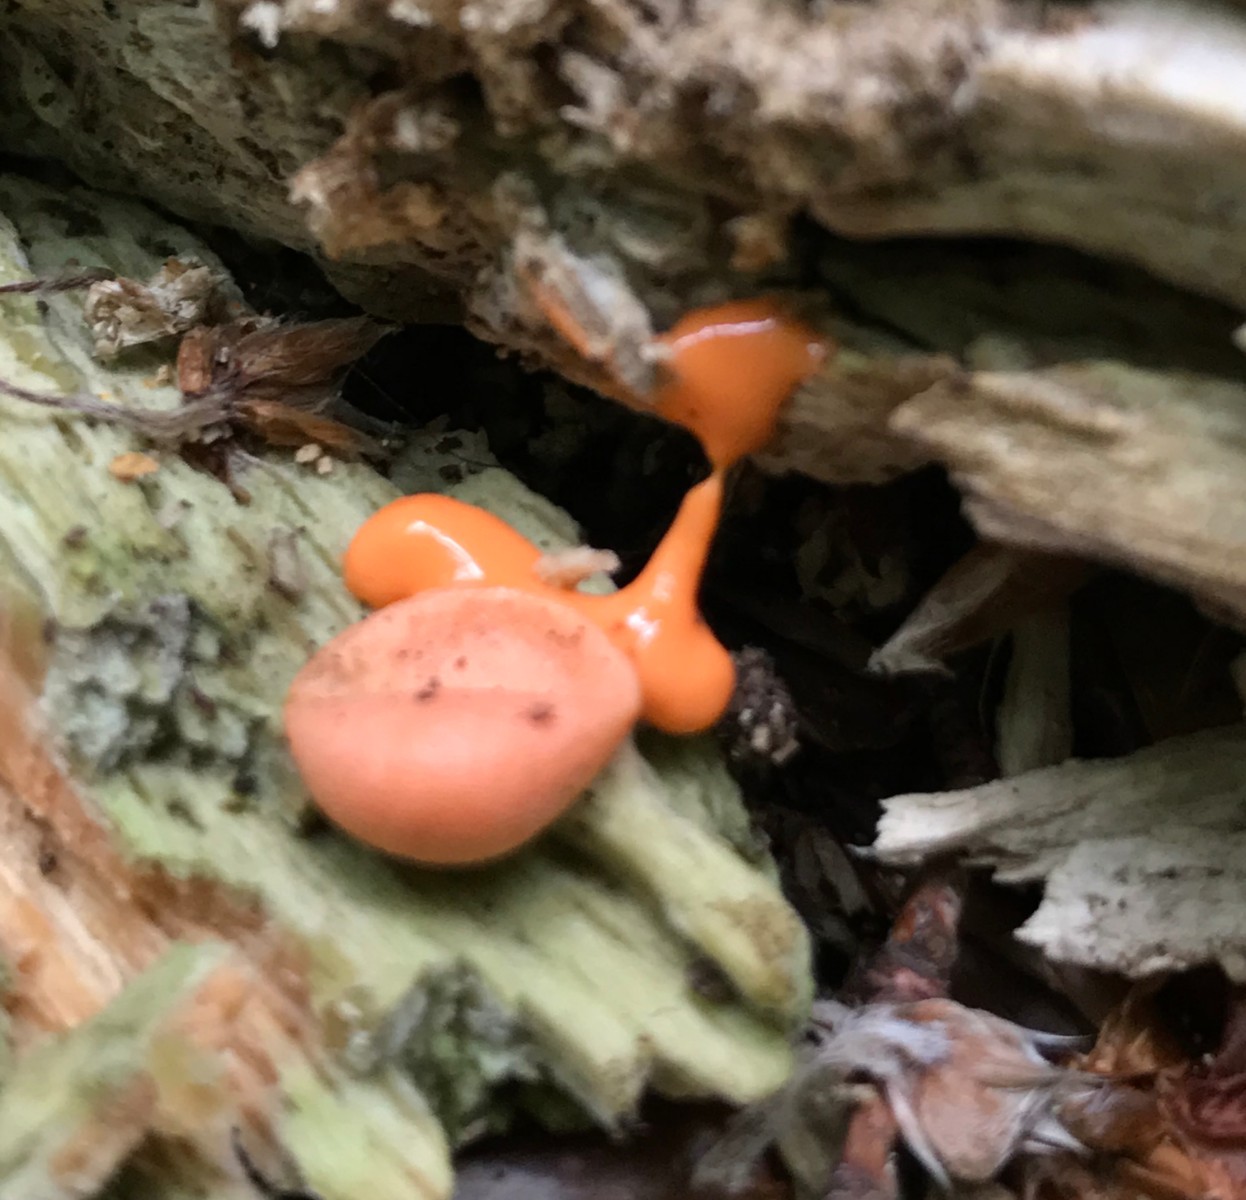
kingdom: Protozoa
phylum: Mycetozoa
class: Myxomycetes
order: Cribrariales
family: Tubiferaceae
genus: Lycogala
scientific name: Lycogala epidendrum
